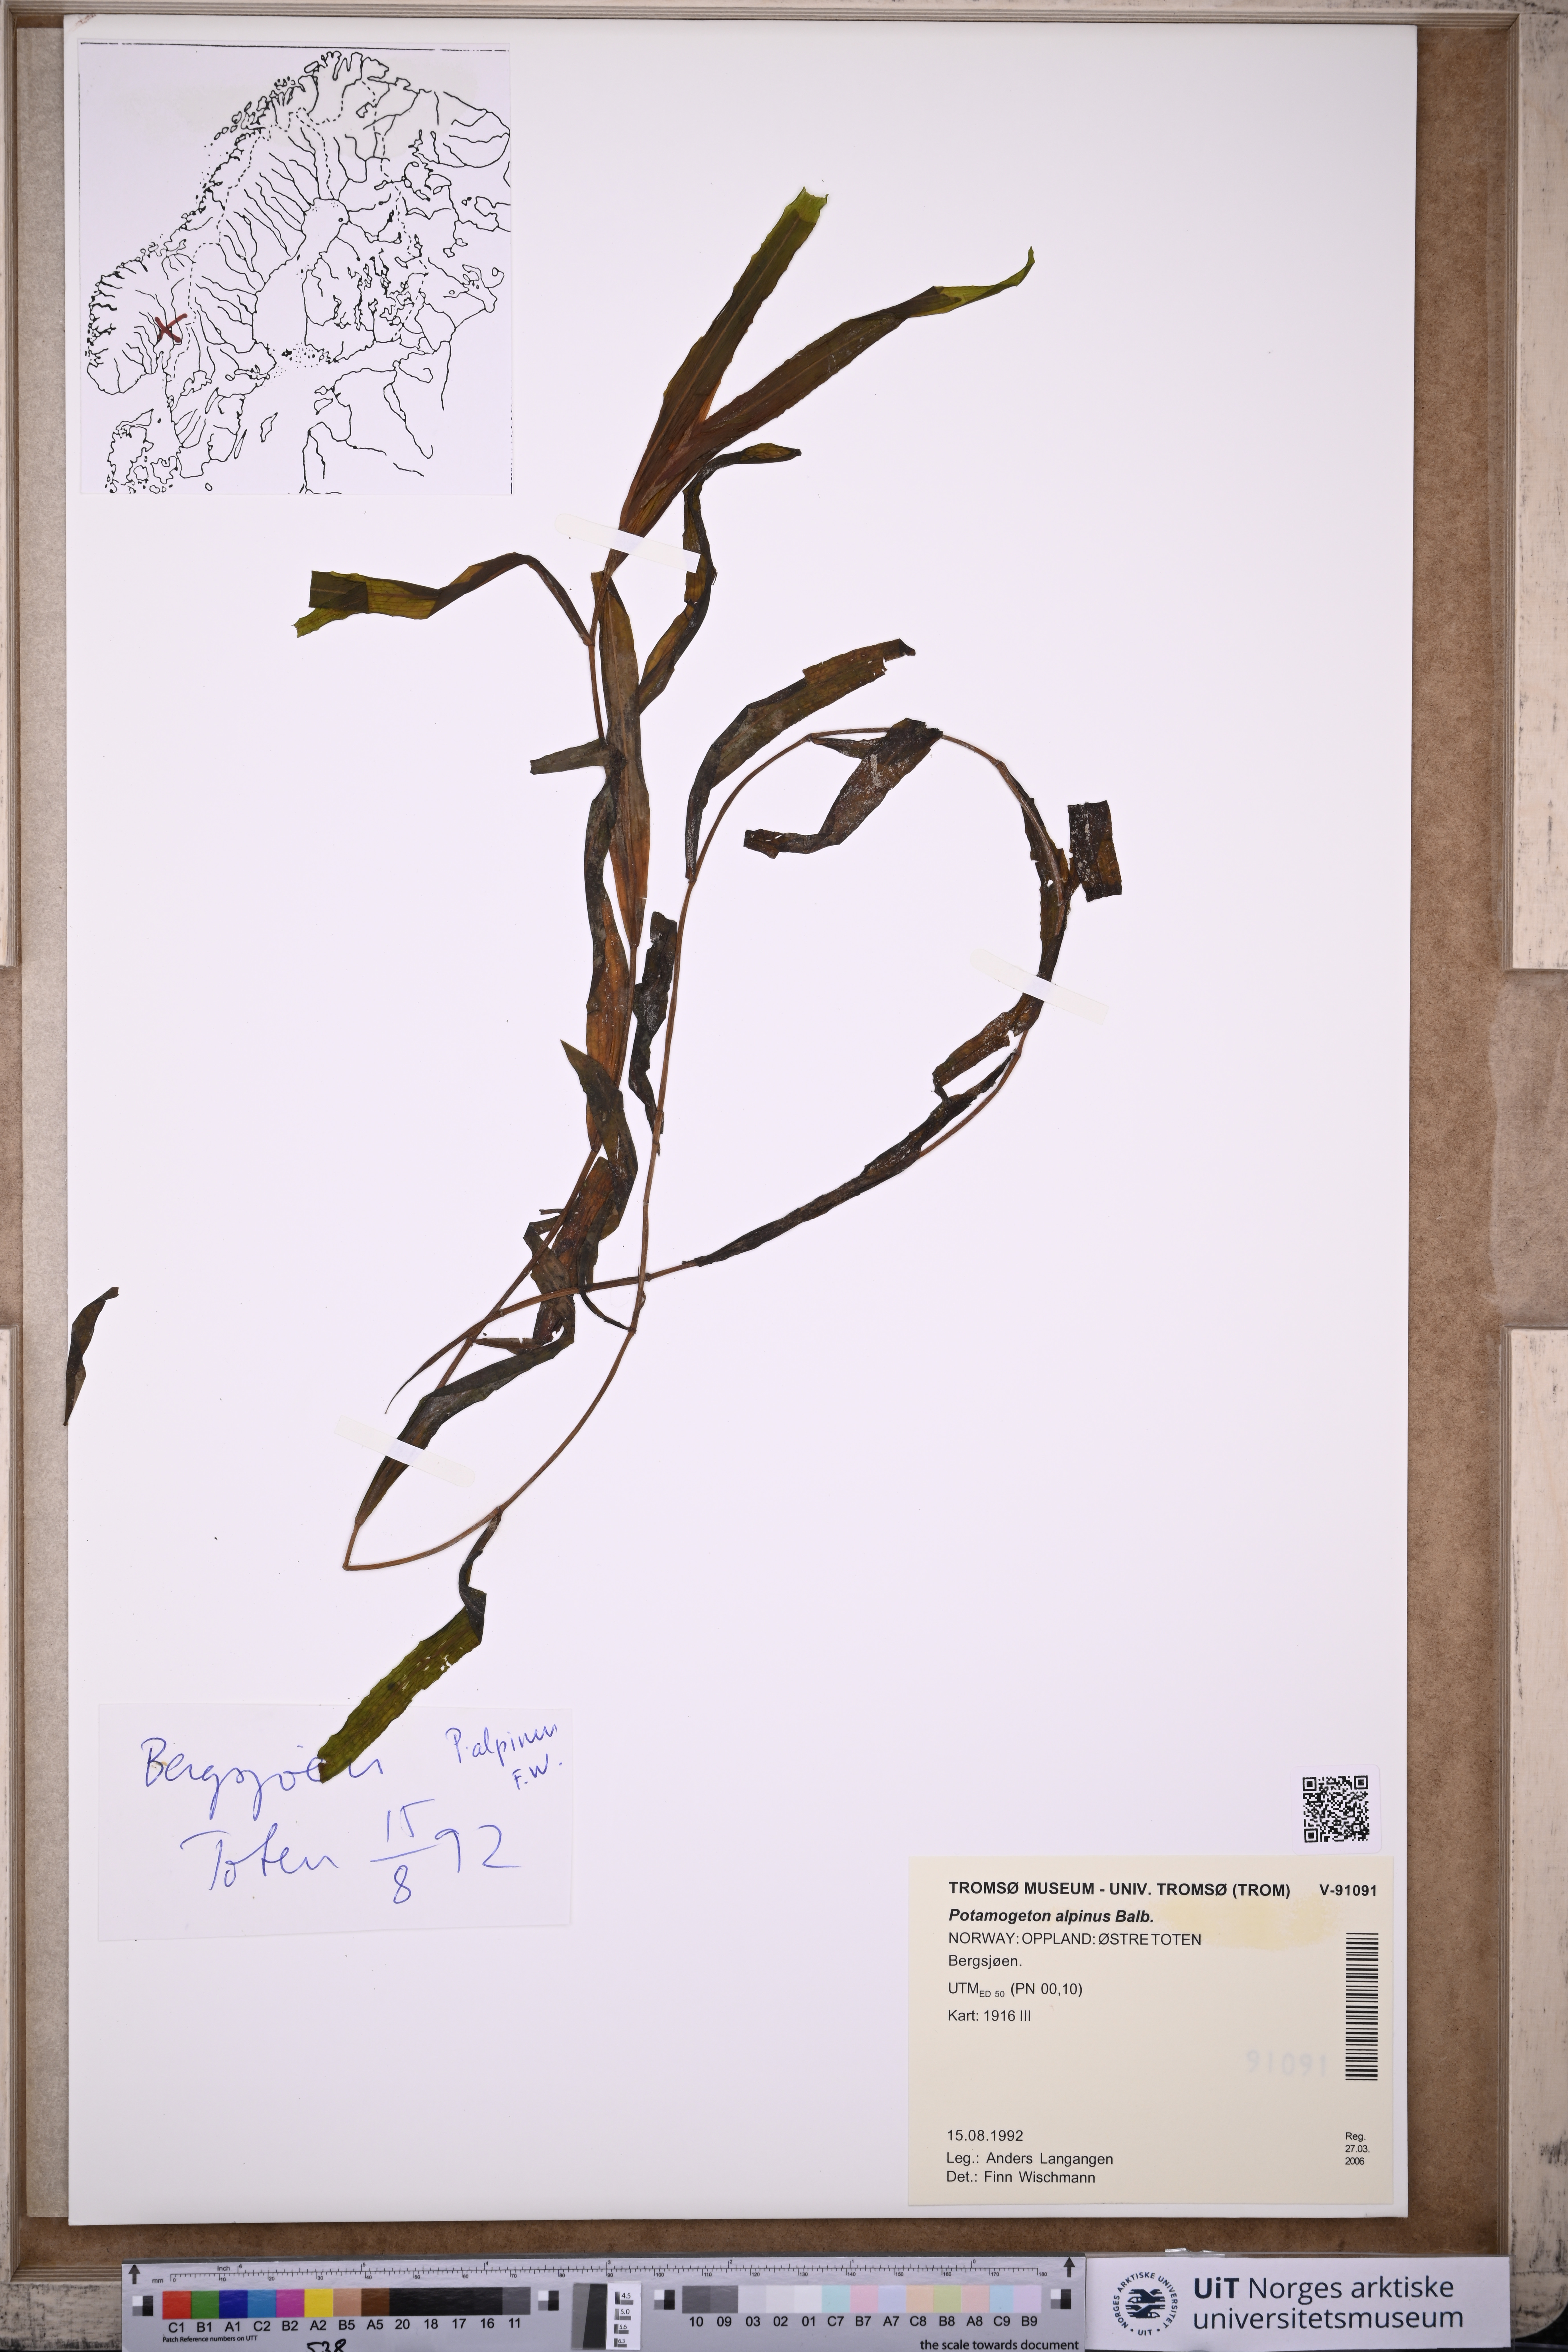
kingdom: Plantae
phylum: Tracheophyta
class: Liliopsida
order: Alismatales
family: Potamogetonaceae
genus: Potamogeton
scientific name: Potamogeton alpinus
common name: Red pondweed
